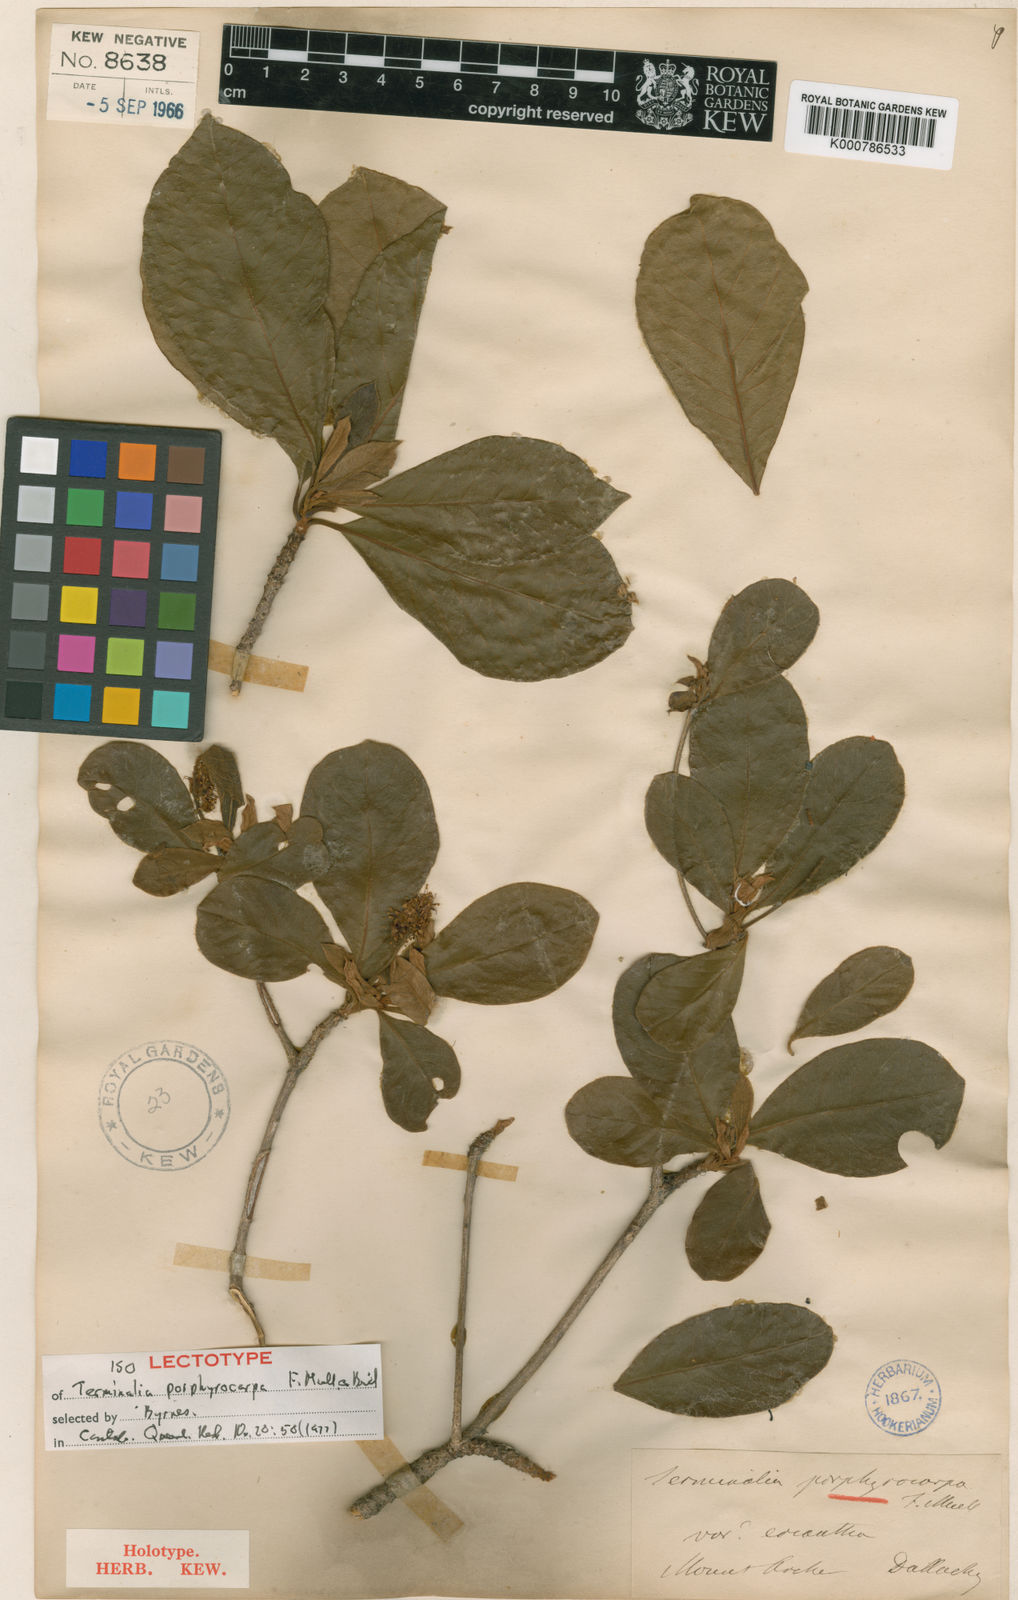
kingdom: Plantae
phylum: Tracheophyta
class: Magnoliopsida
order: Myrtales
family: Combretaceae
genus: Terminalia
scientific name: Terminalia porphyrocarpa
